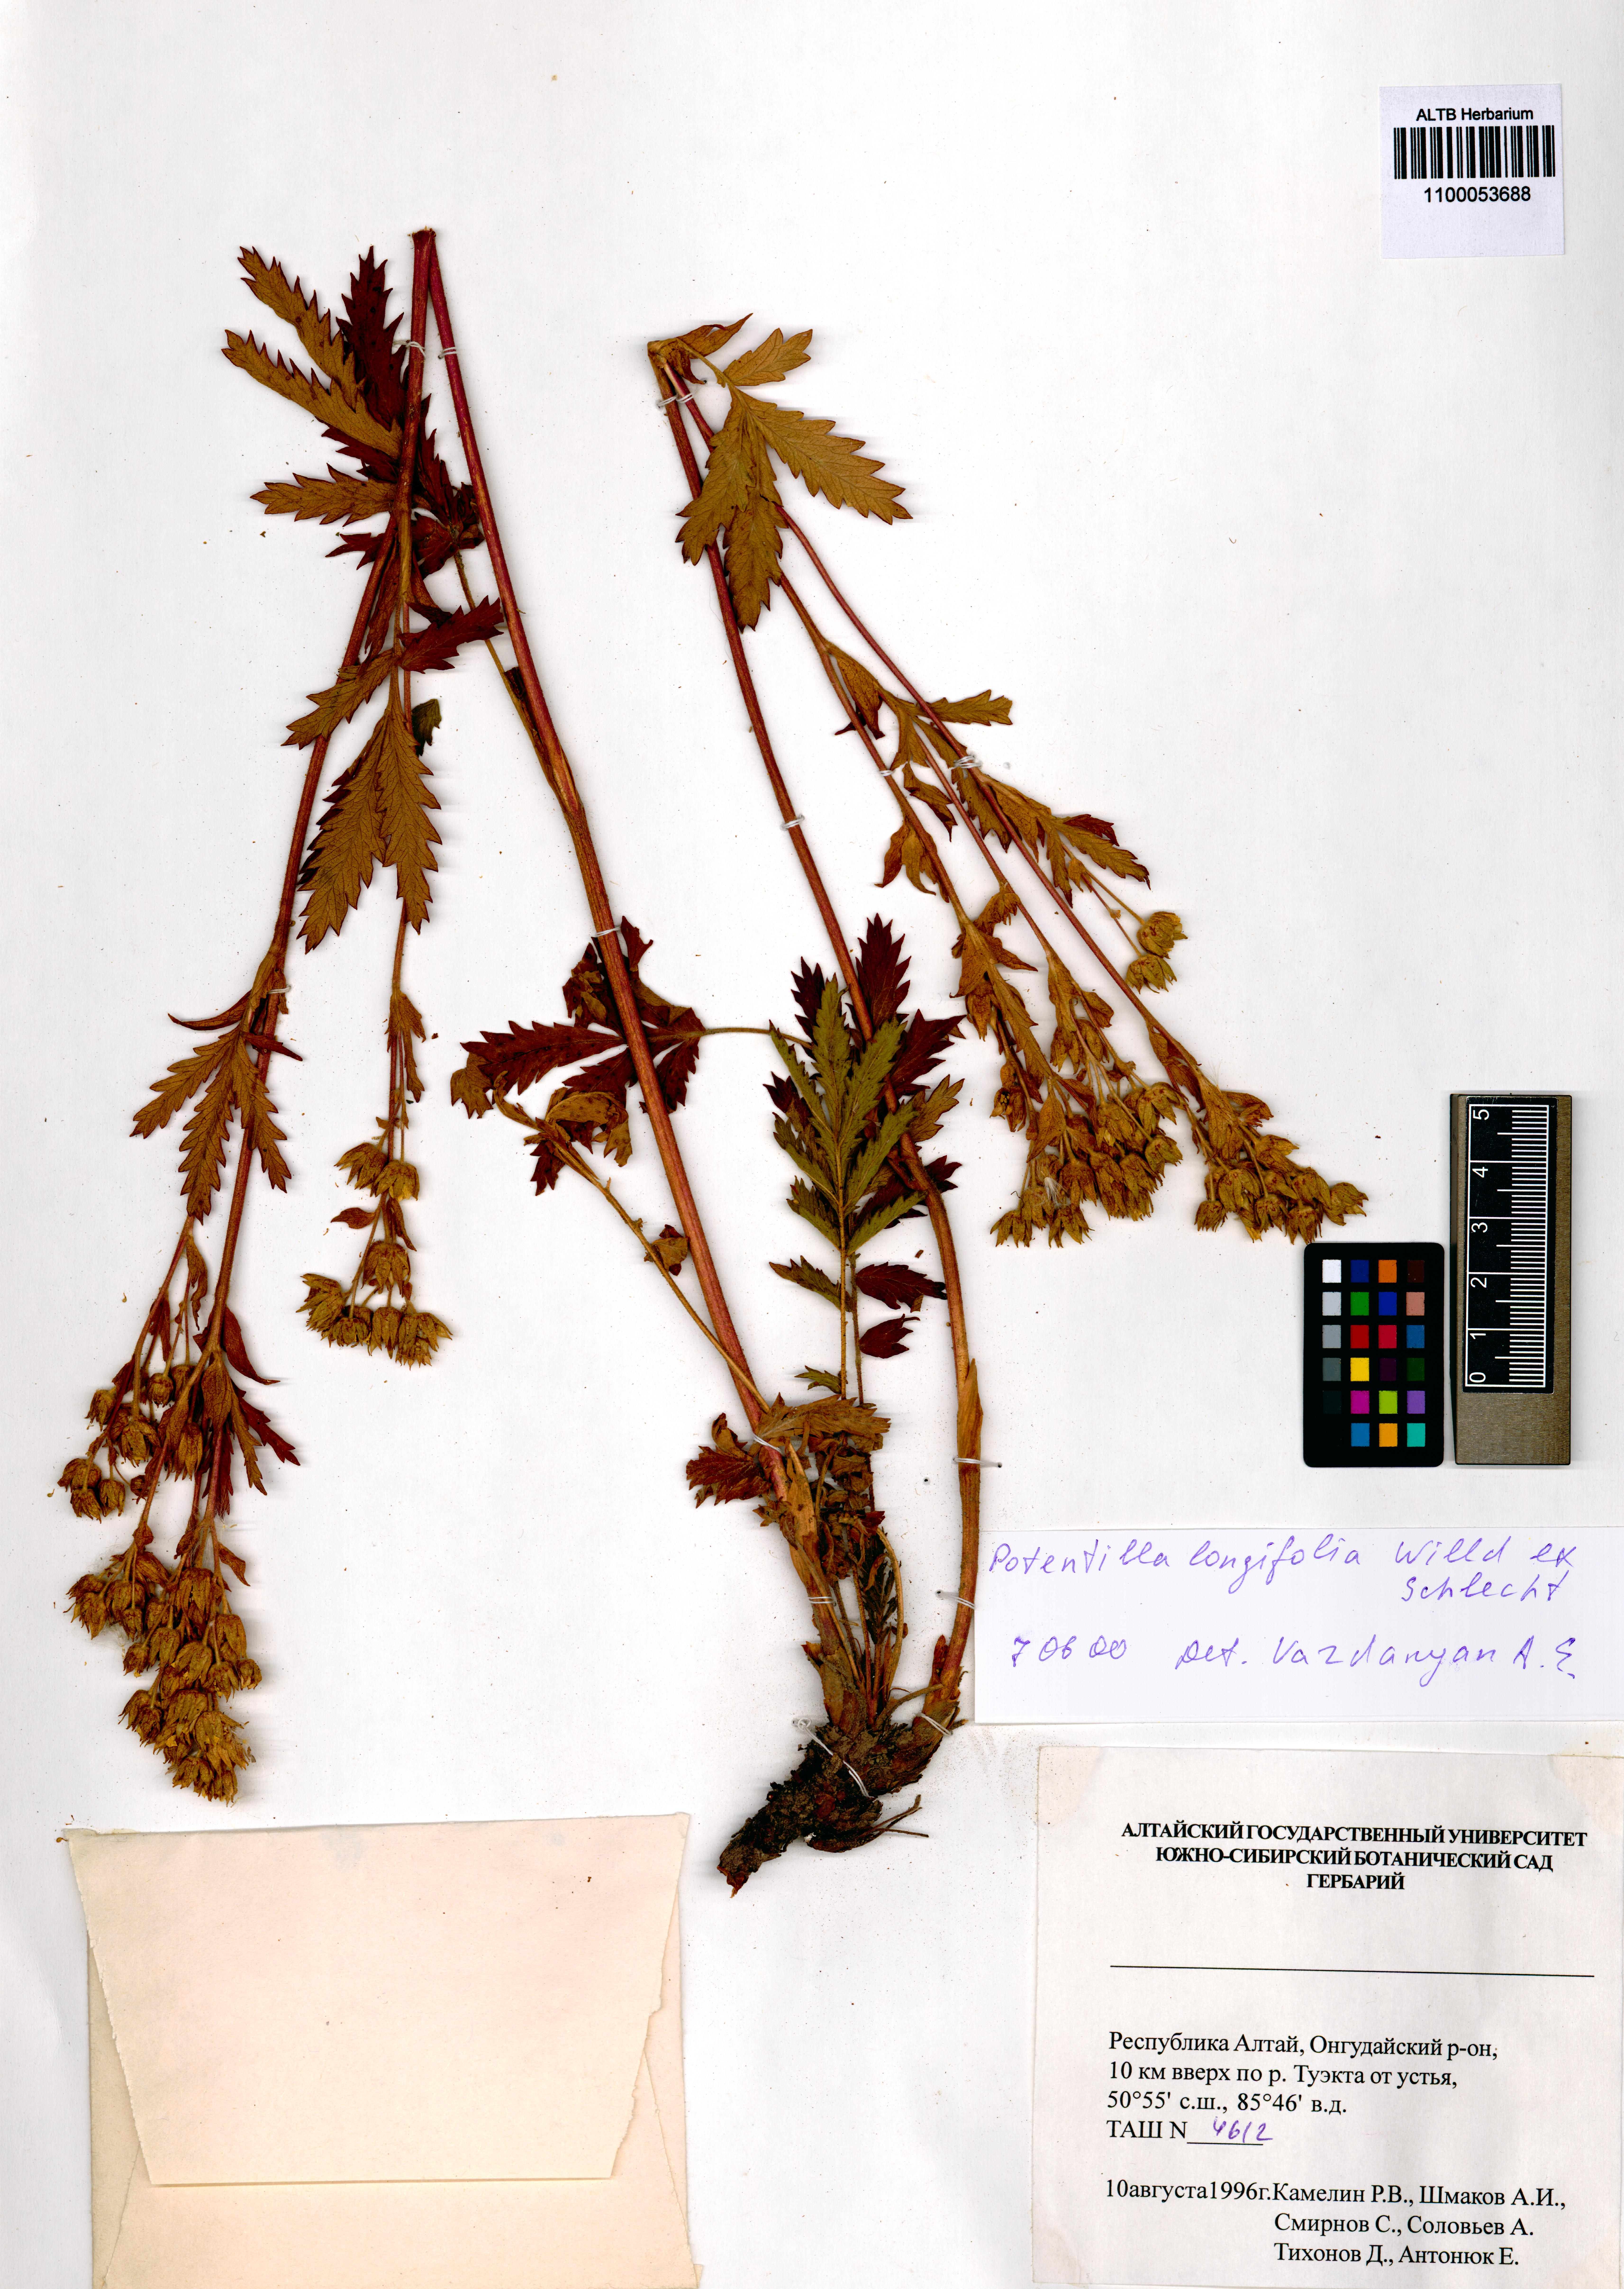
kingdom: Plantae
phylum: Tracheophyta
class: Magnoliopsida
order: Rosales
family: Rosaceae
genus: Potentilla
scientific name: Potentilla longifolia
